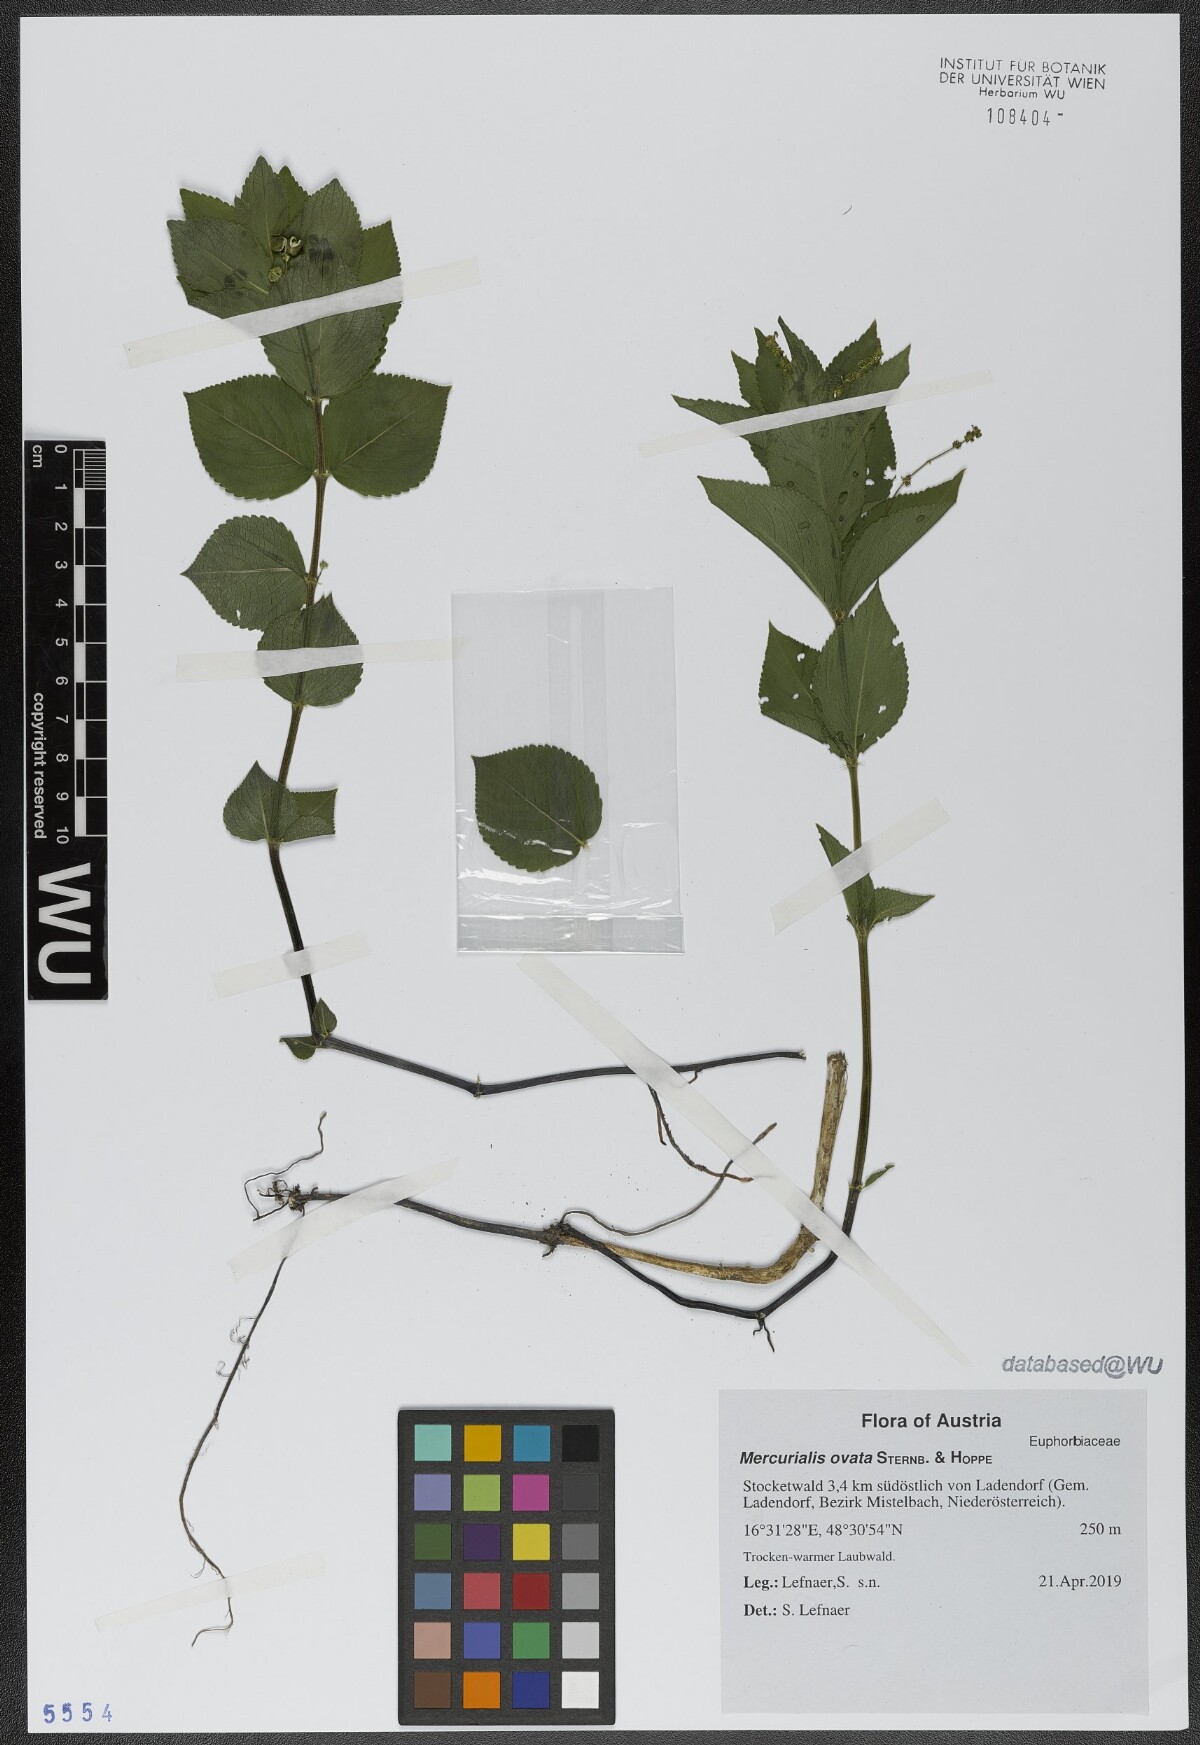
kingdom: Plantae
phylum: Tracheophyta
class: Magnoliopsida
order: Malpighiales
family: Euphorbiaceae
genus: Mercurialis
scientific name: Mercurialis ovata
